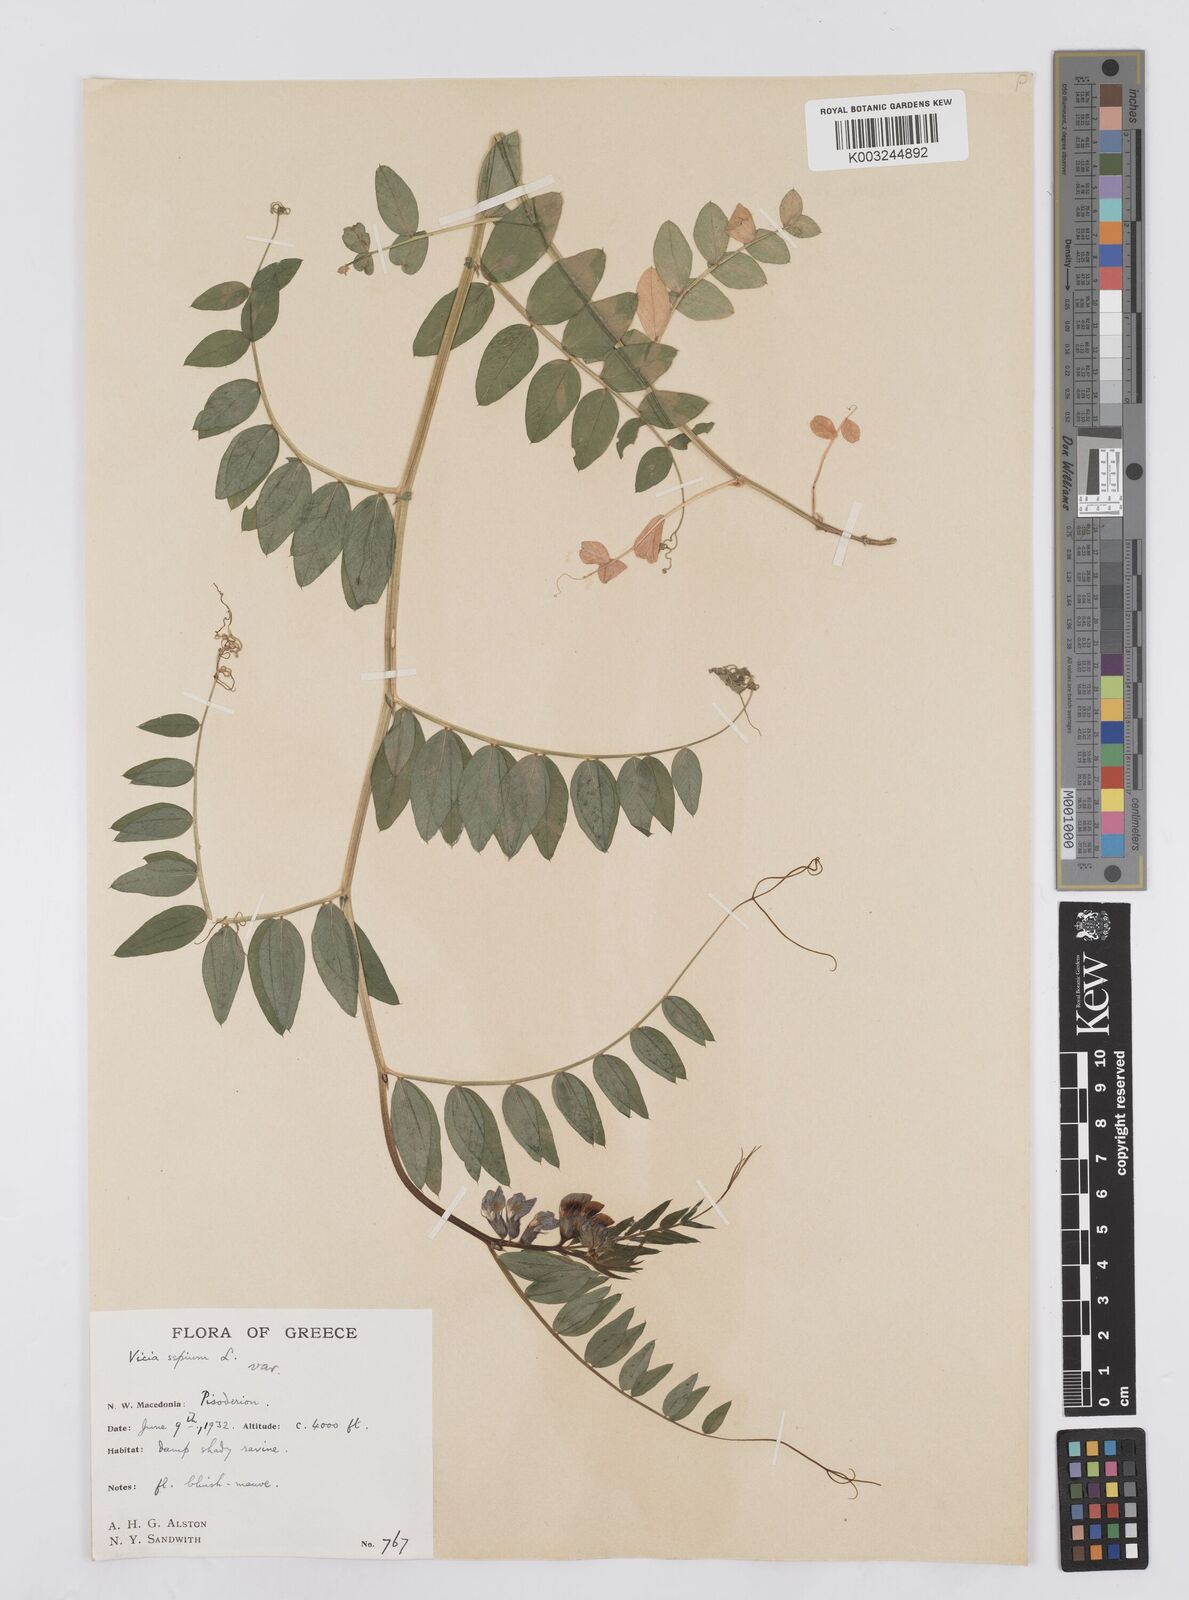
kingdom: Plantae
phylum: Tracheophyta
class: Magnoliopsida
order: Fabales
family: Fabaceae
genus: Vicia
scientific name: Vicia sepium
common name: Bush vetch
